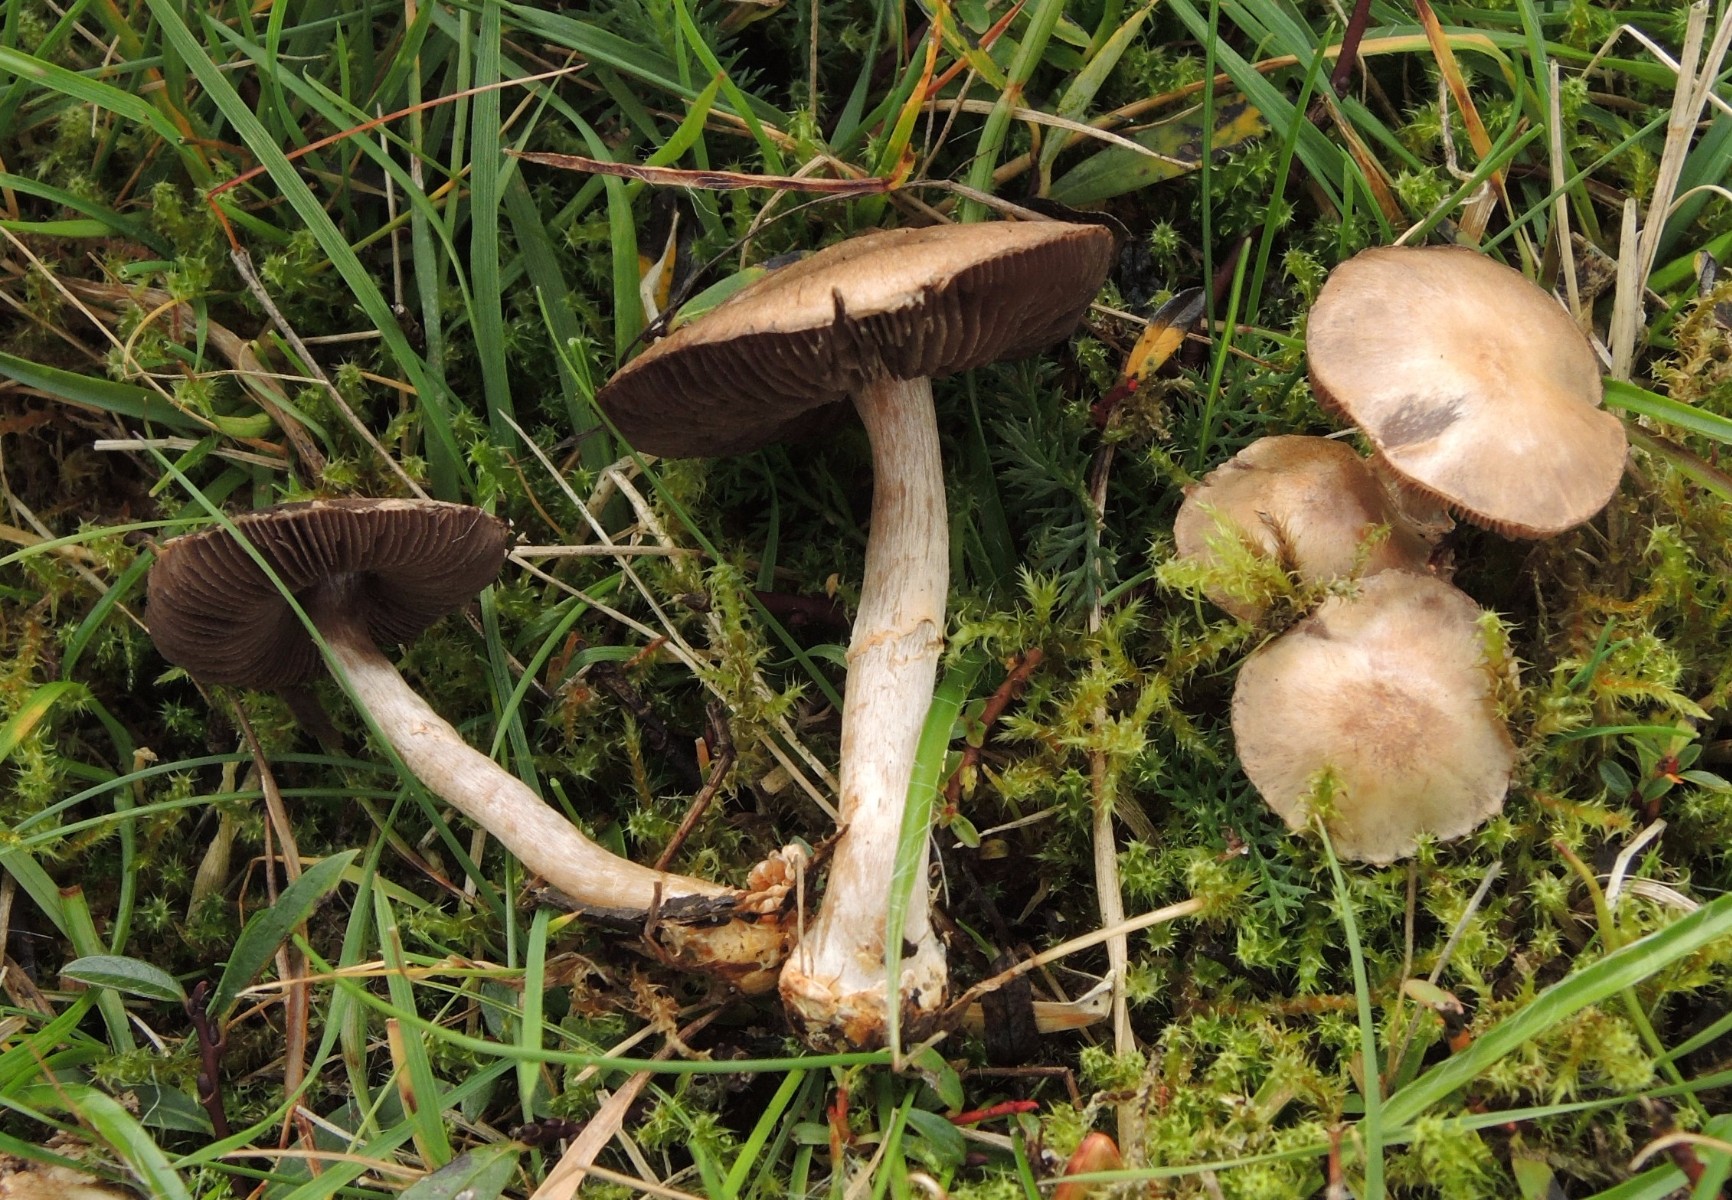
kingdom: Fungi
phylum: Basidiomycota
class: Agaricomycetes
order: Agaricales
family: Agaricaceae
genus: Agaricus
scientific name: Agaricus pallens
